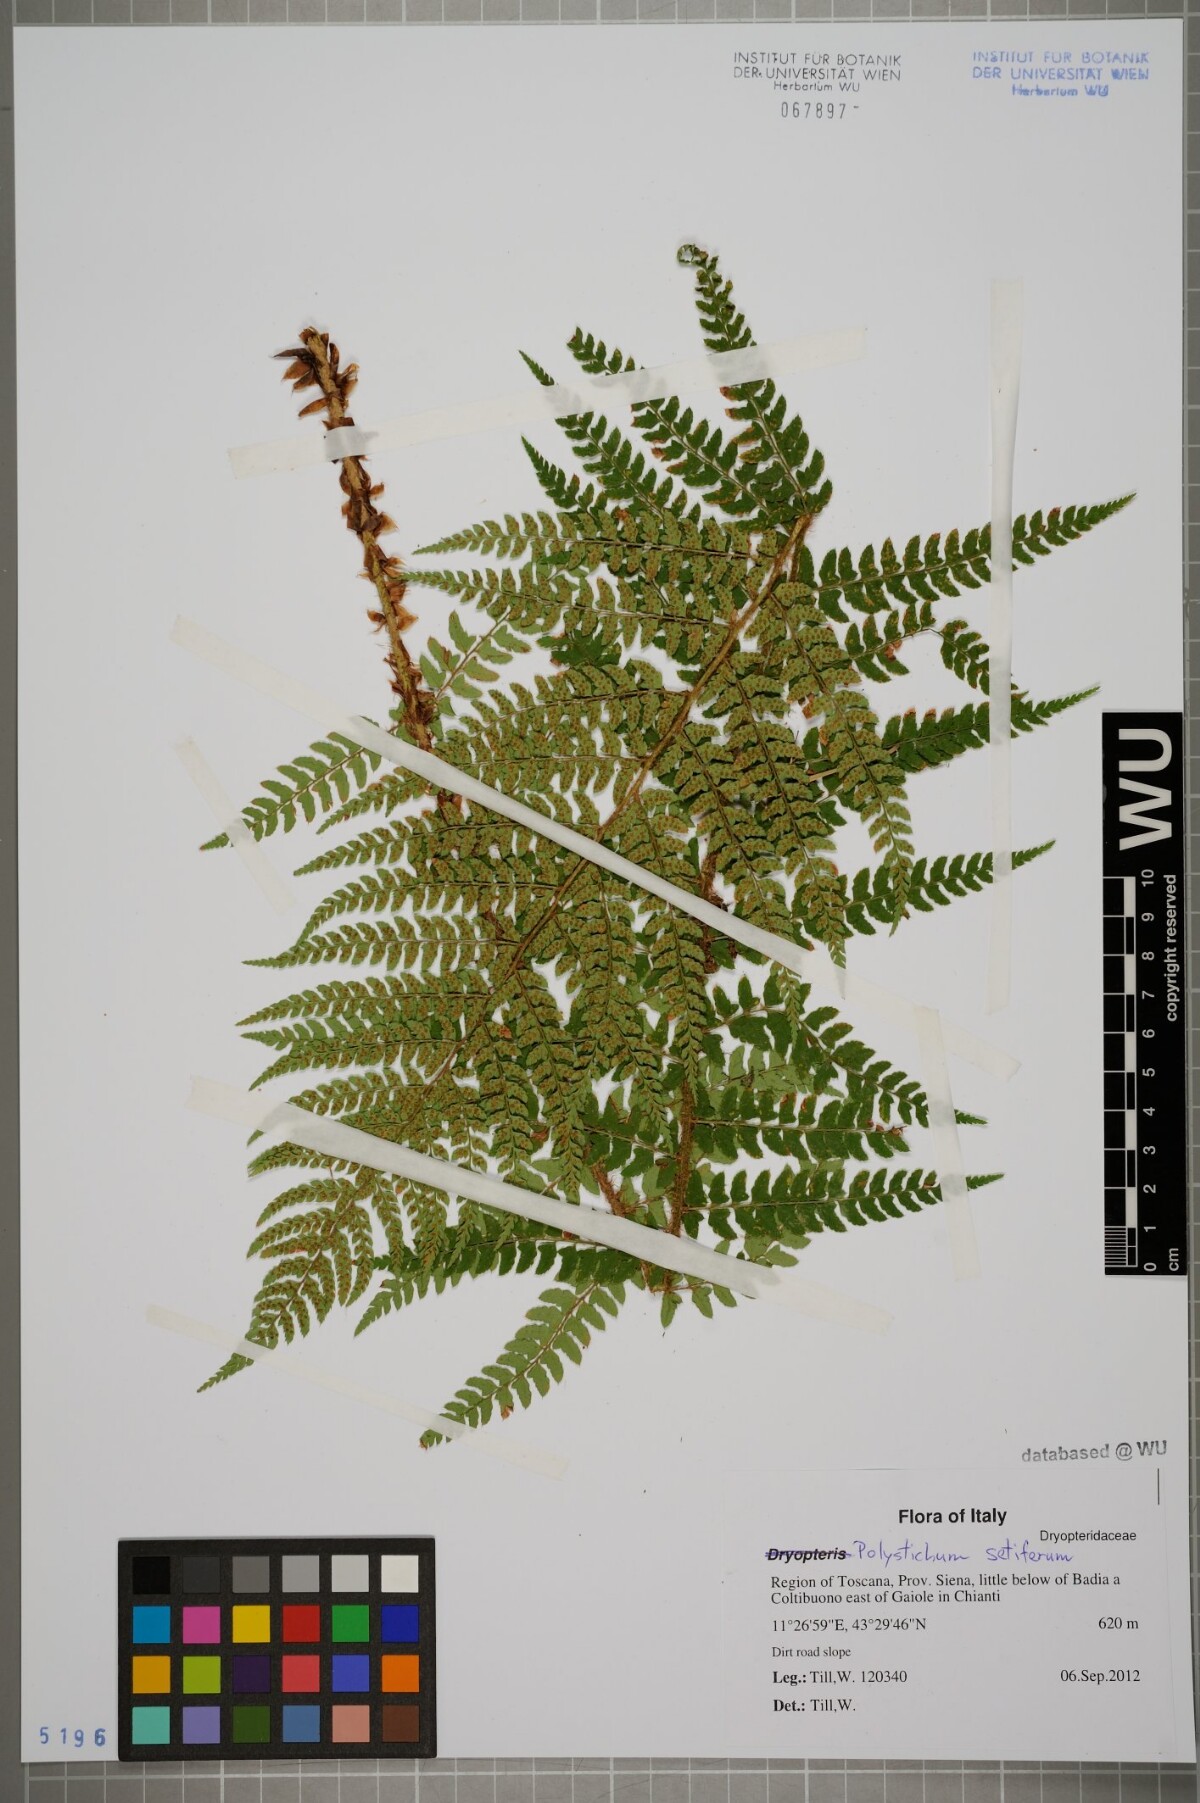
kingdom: Plantae
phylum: Tracheophyta
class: Polypodiopsida
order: Polypodiales
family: Dryopteridaceae
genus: Polystichum
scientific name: Polystichum setiferum
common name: Soft shield-fern
